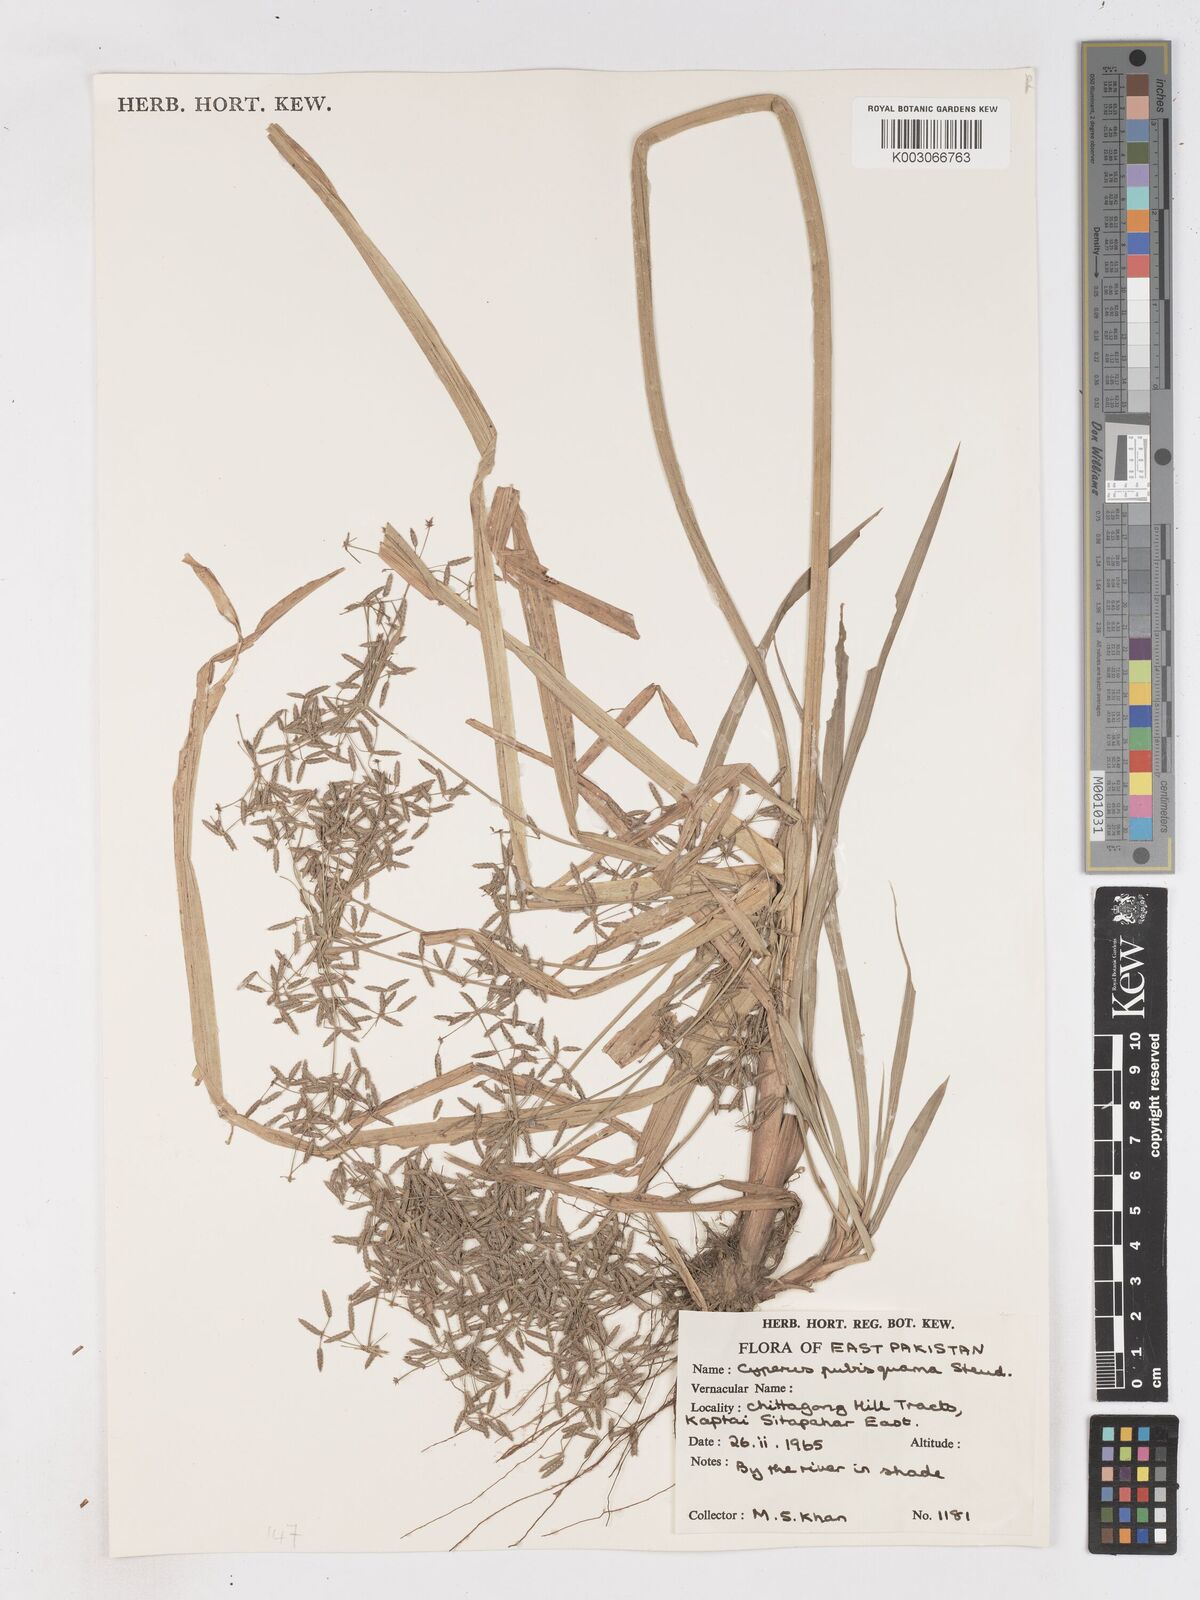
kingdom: Plantae
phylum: Tracheophyta
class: Liliopsida
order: Poales
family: Cyperaceae
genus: Cyperus
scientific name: Cyperus diffusus
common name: Dwarf umbrella grass
